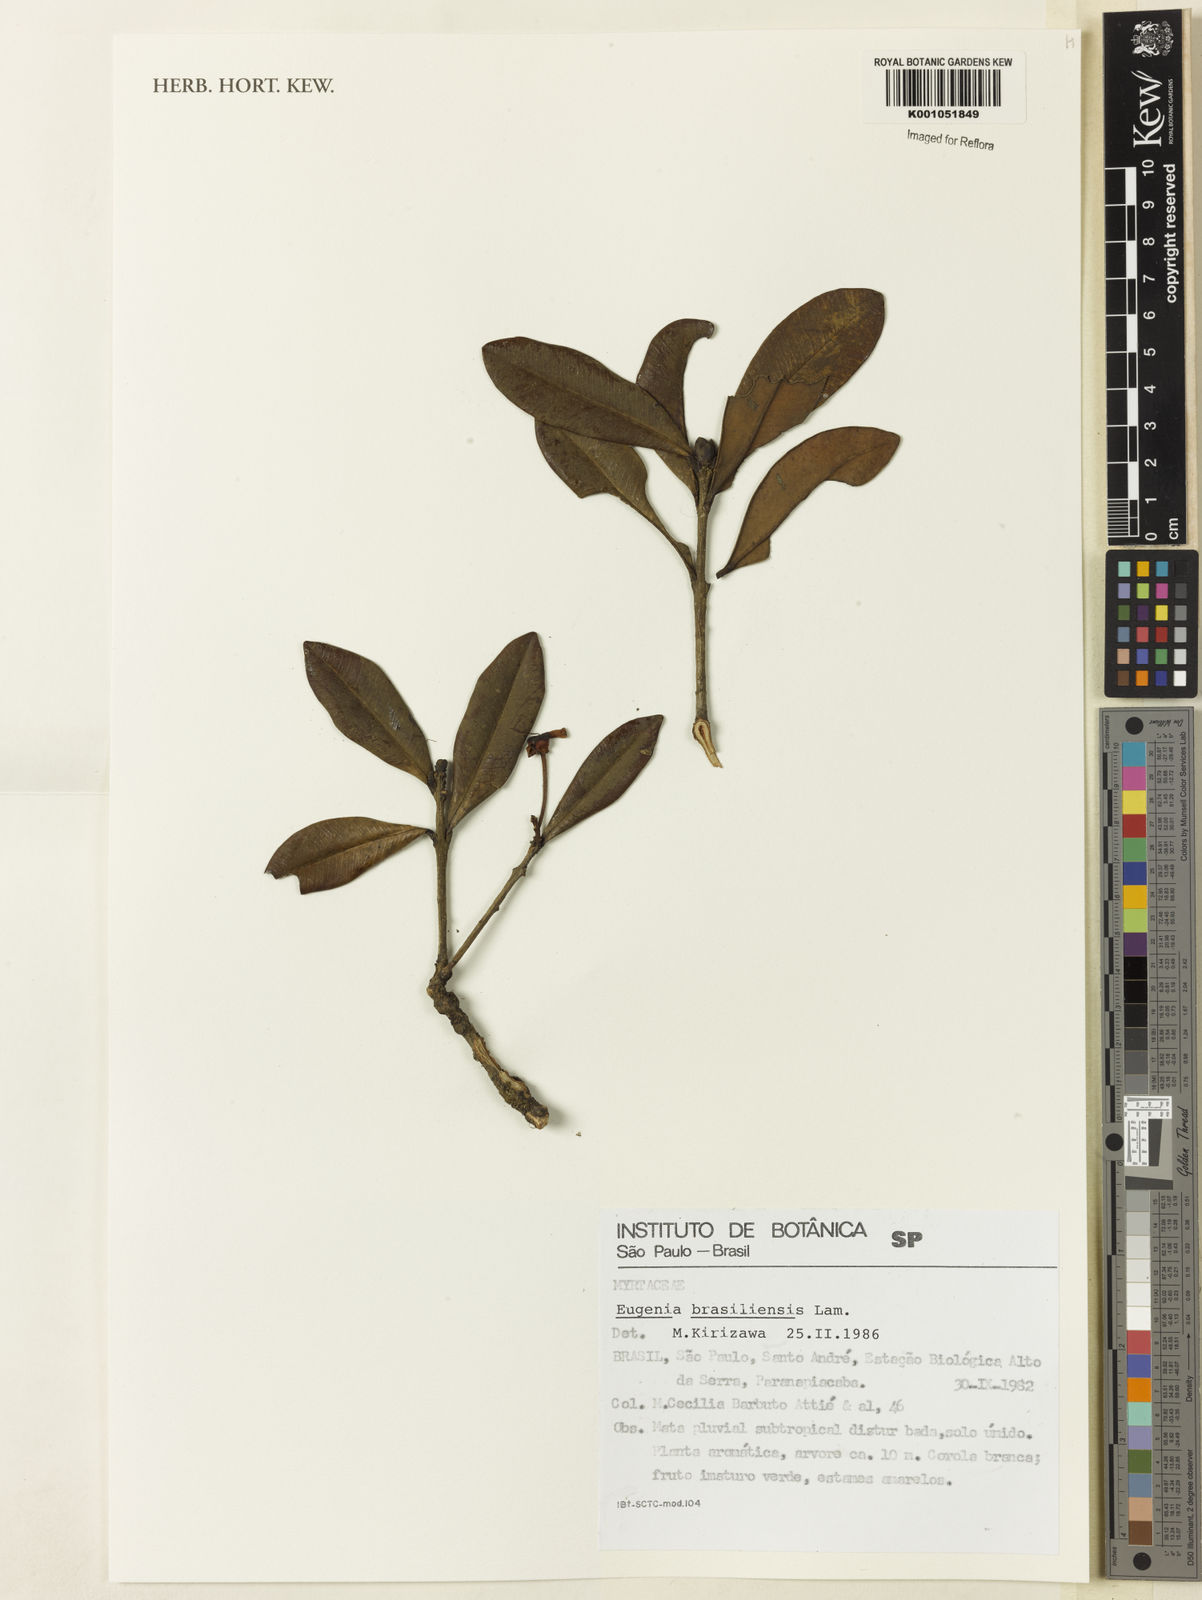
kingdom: Plantae
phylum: Tracheophyta
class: Magnoliopsida
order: Myrtales
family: Myrtaceae
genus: Eugenia
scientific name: Eugenia brasiliensis
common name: Grumichama
